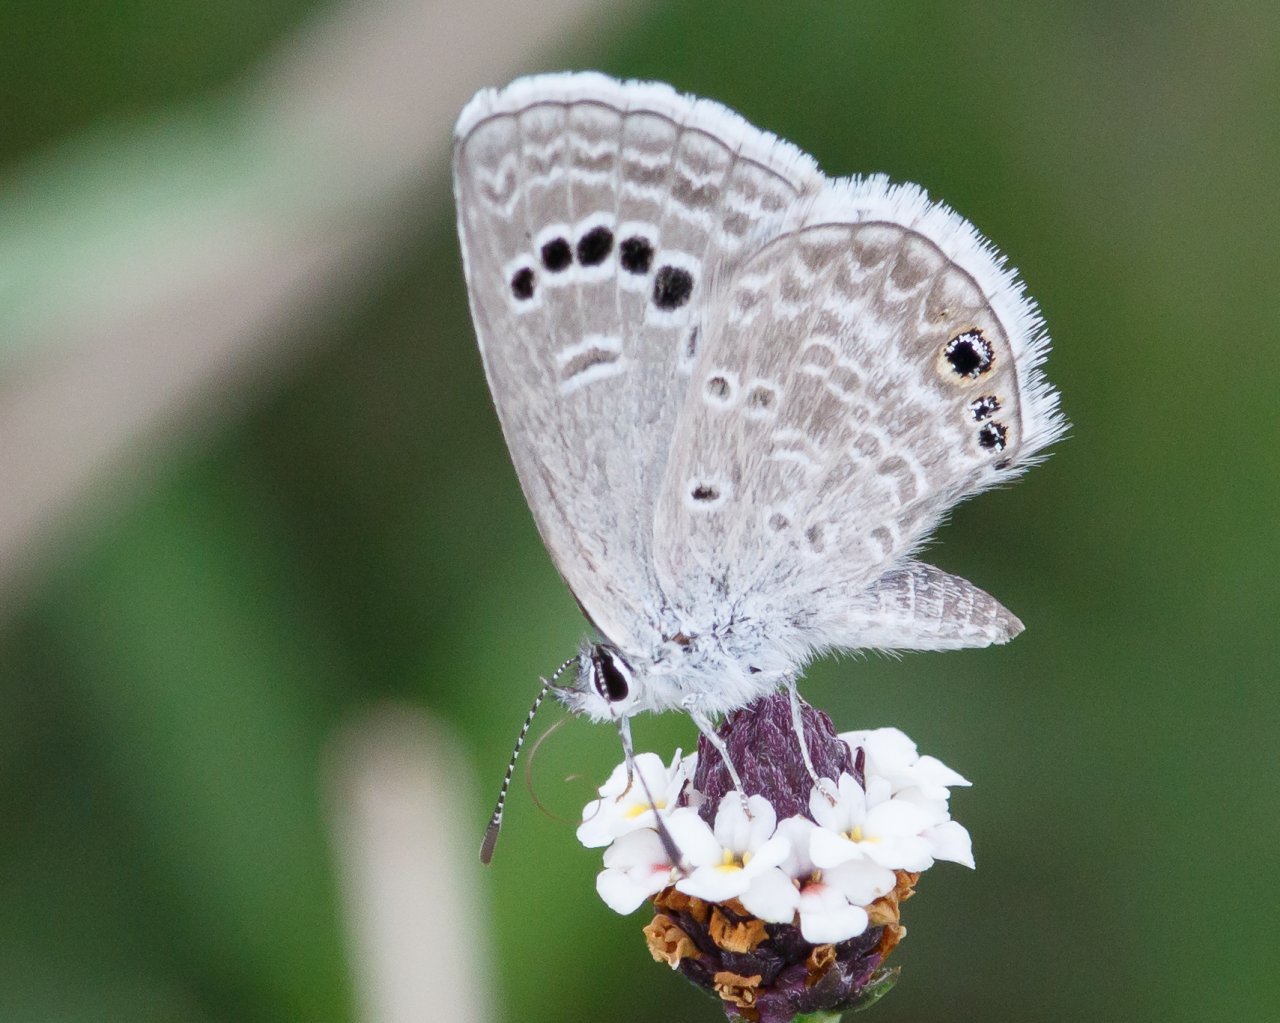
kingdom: Animalia
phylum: Arthropoda
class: Insecta
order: Lepidoptera
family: Lycaenidae
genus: Echinargus
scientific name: Echinargus isola
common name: Reakirt's Blue
